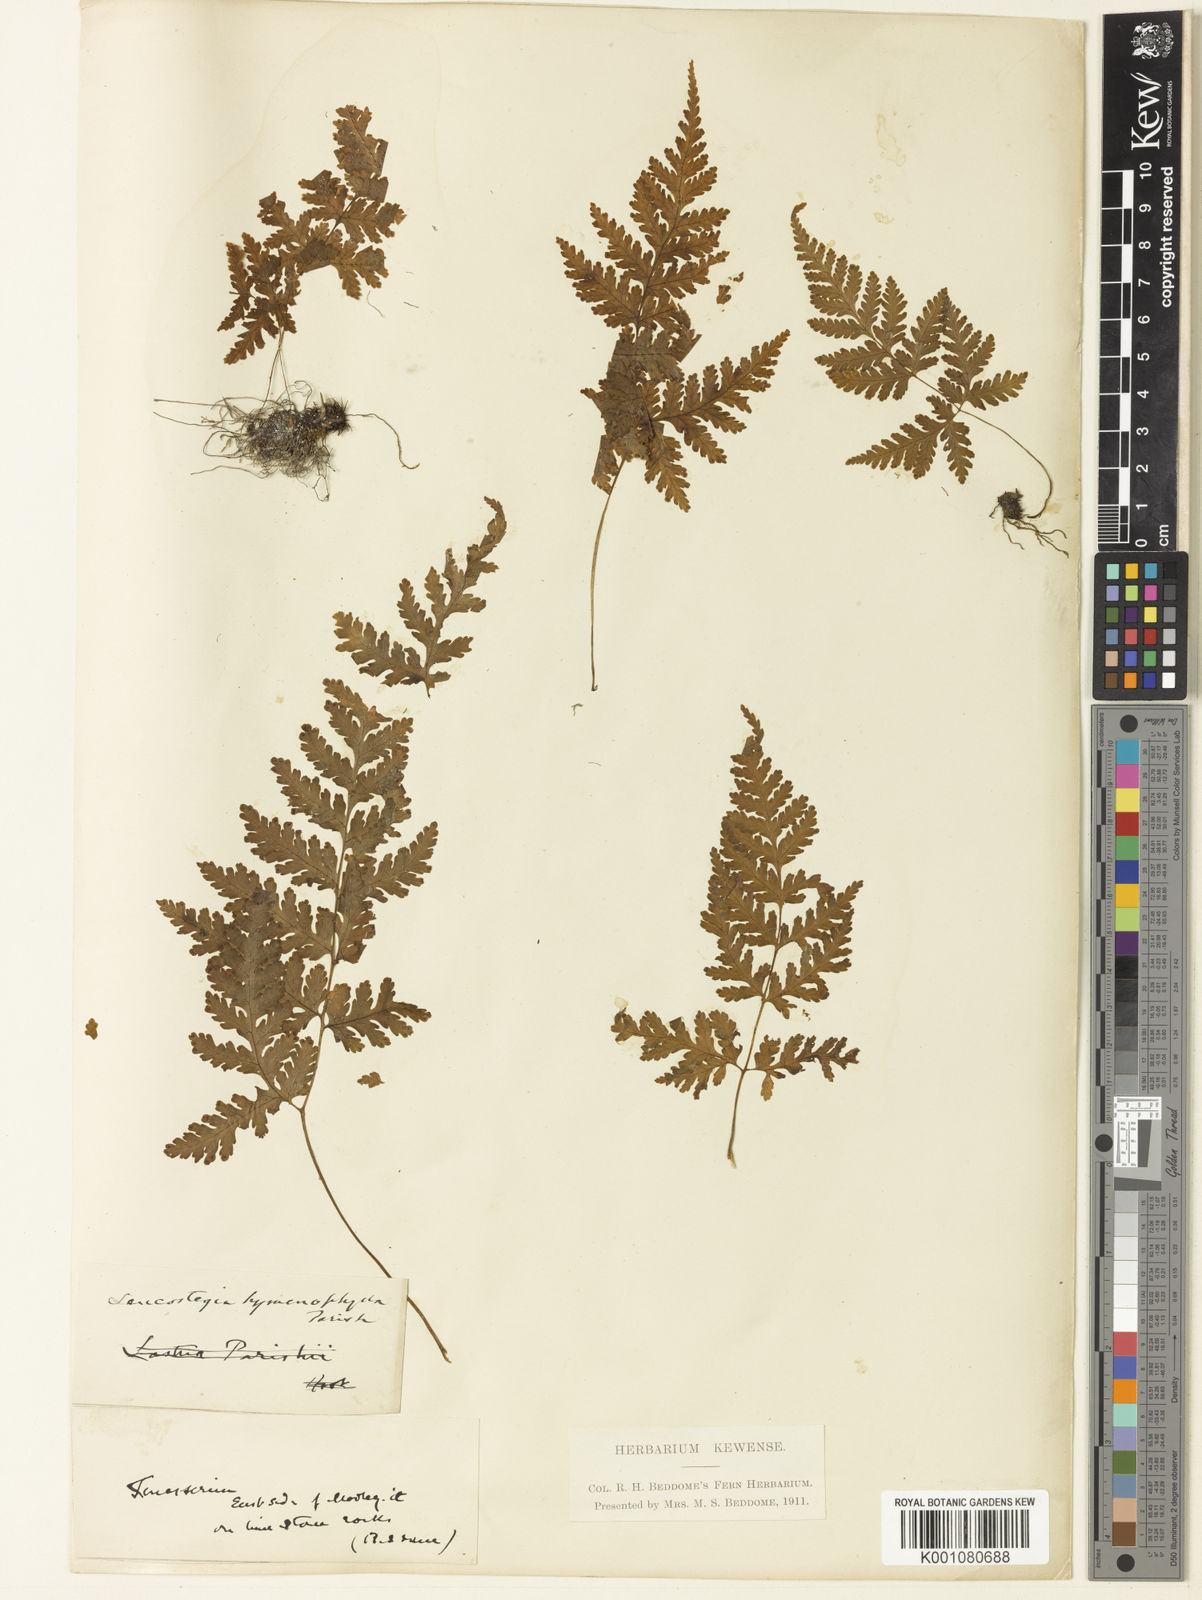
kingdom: Plantae
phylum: Tracheophyta
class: Polypodiopsida
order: Polypodiales
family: Tectariaceae
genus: Tectaria
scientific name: Tectaria hymenophylla
